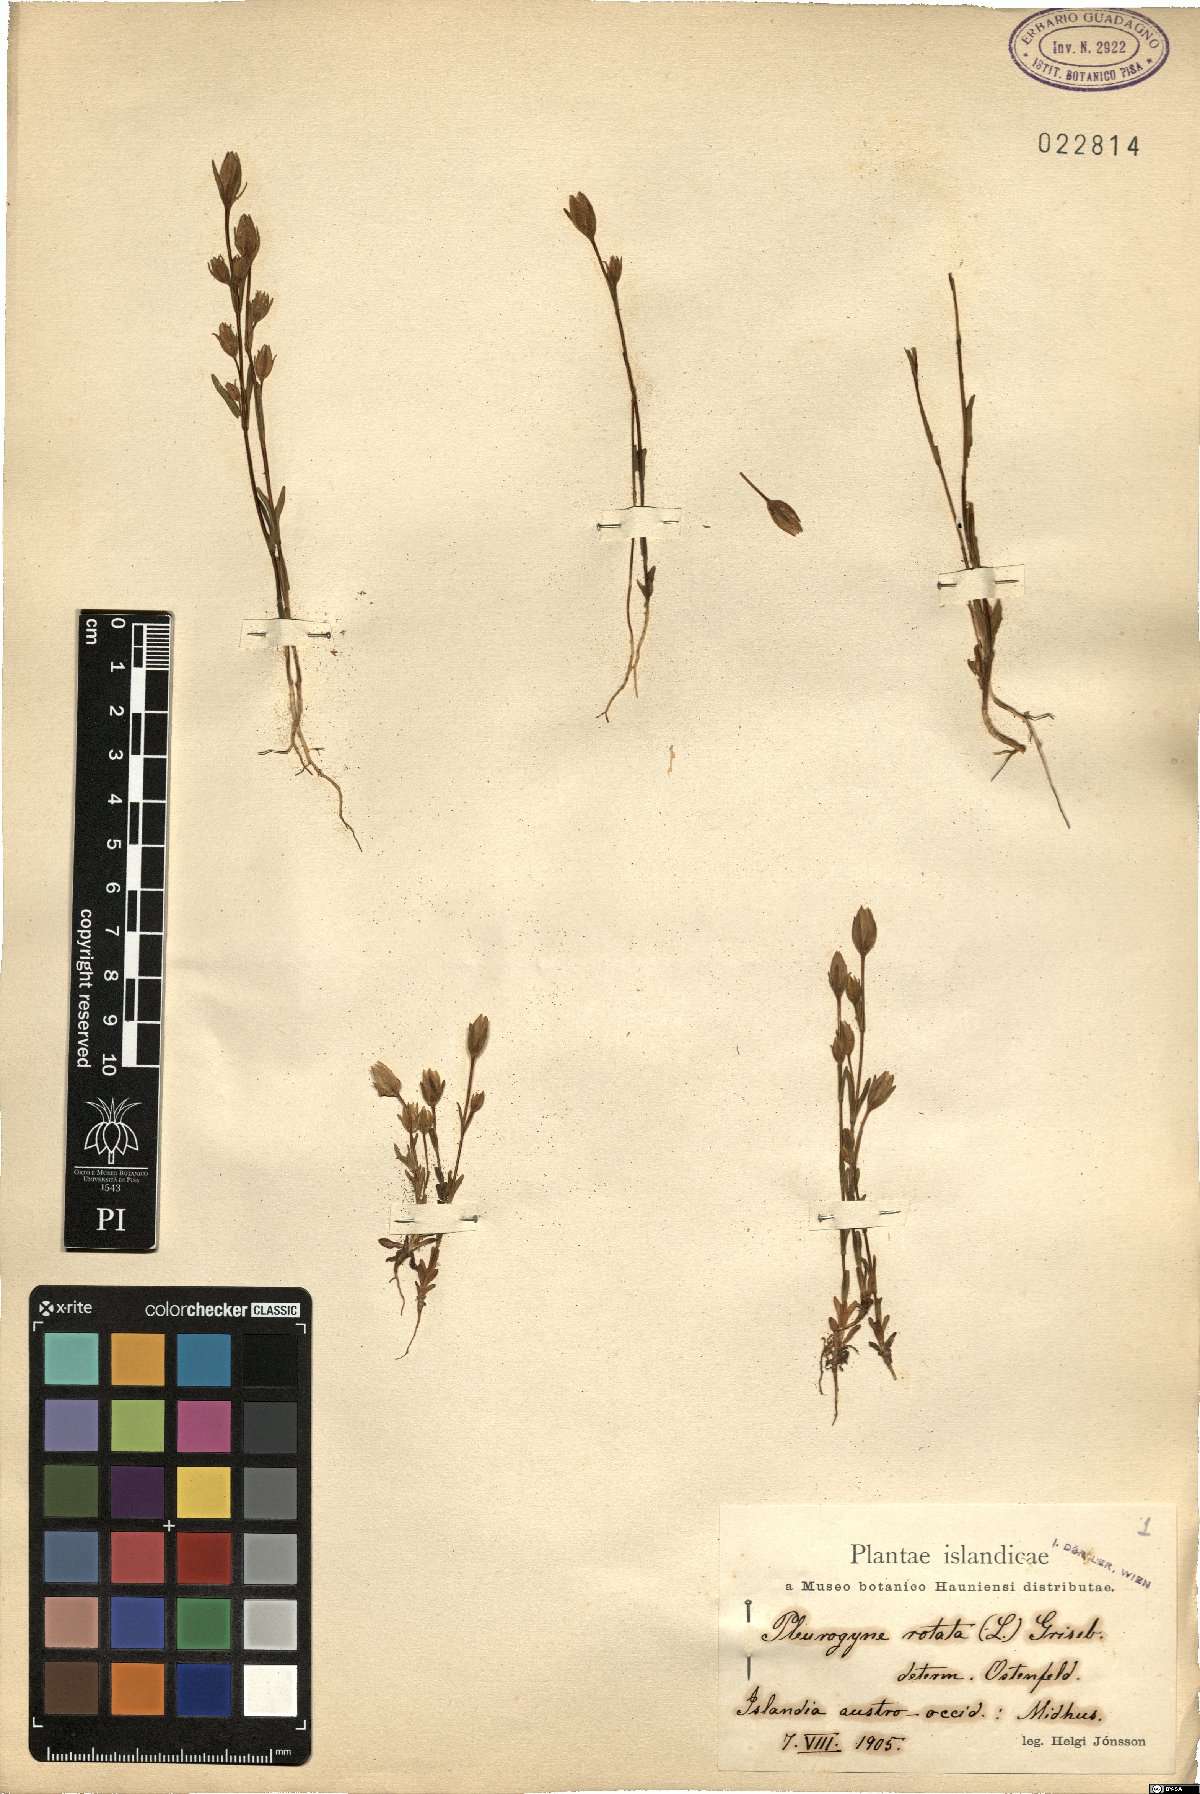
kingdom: Plantae
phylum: Tracheophyta
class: Magnoliopsida
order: Gentianales
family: Gentianaceae
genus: Lomatogonium
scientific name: Lomatogonium rotatum
